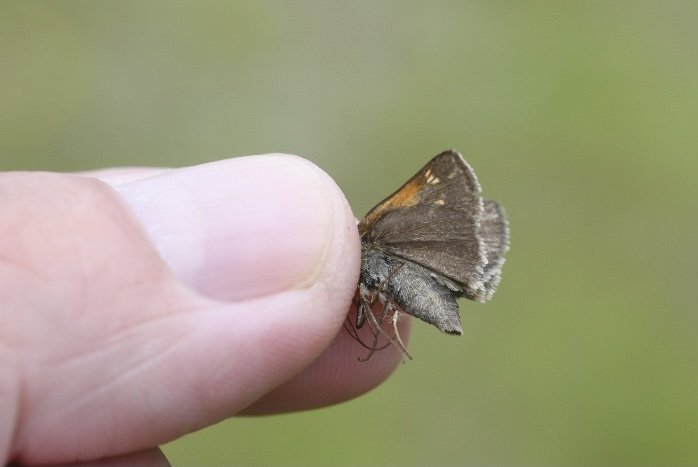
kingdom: Animalia
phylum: Arthropoda
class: Insecta
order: Lepidoptera
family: Hesperiidae
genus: Polites
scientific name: Polites themistocles
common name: Tawny-edged Skipper
